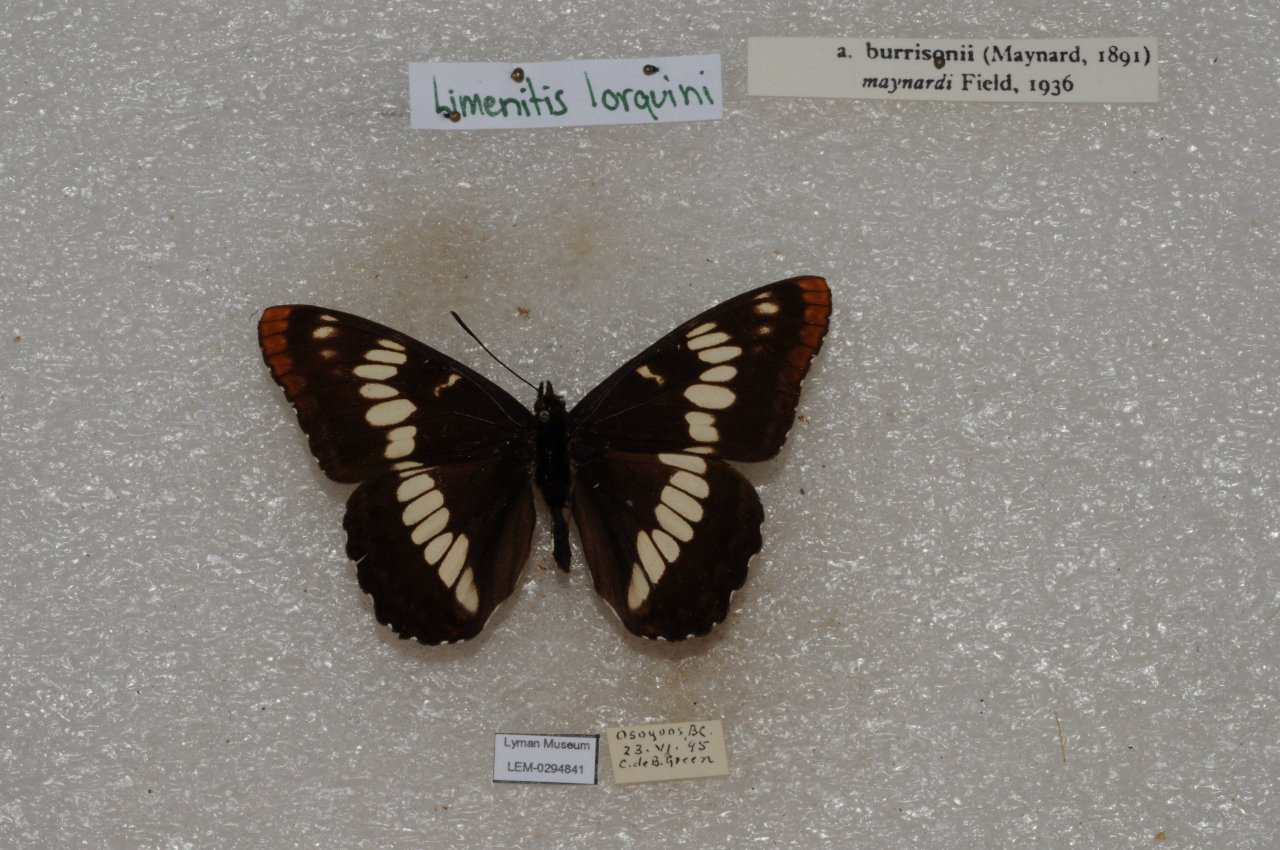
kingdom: Animalia
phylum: Arthropoda
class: Insecta
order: Lepidoptera
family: Nymphalidae
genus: Limenitis
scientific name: Limenitis lorquini
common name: Lorquin's Admiral
